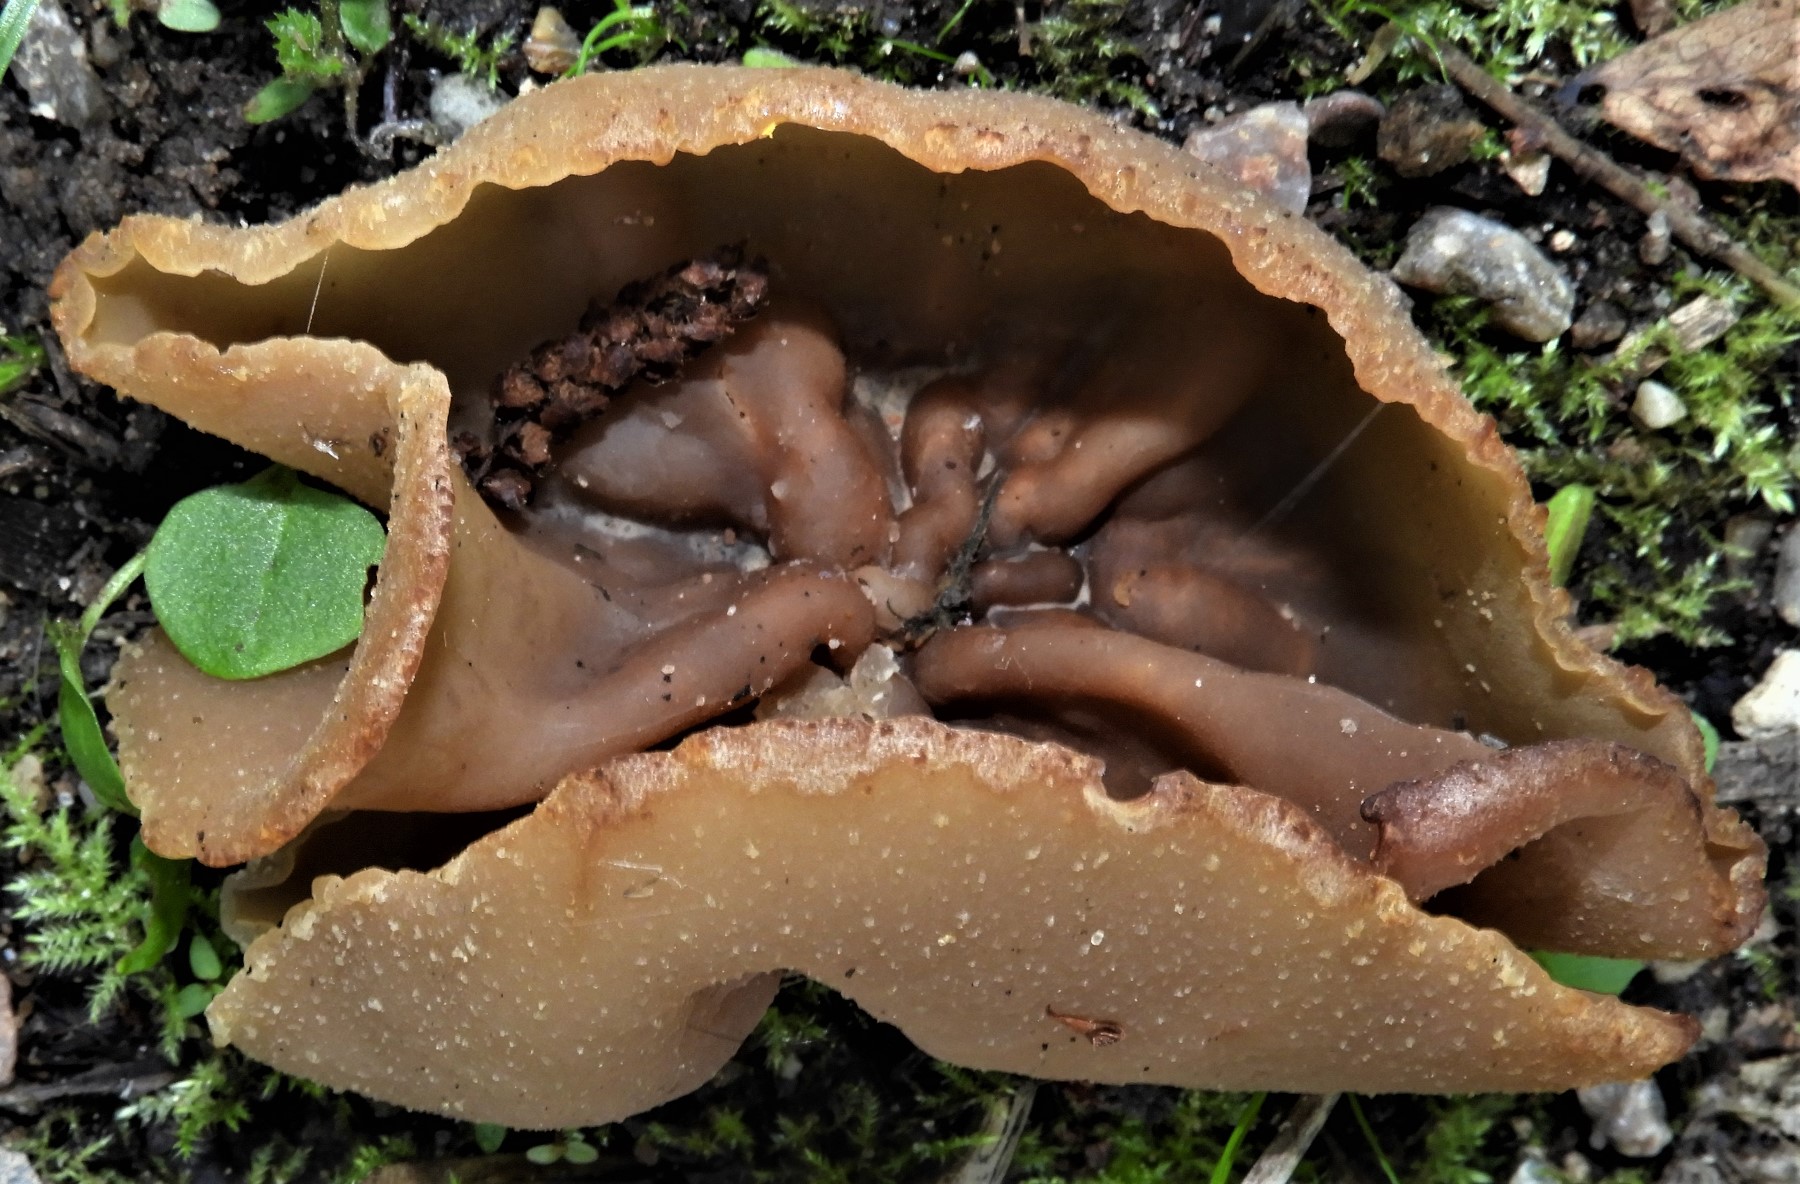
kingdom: Fungi
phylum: Ascomycota
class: Pezizomycetes
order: Pezizales
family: Pezizaceae
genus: Peziza
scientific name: Peziza
